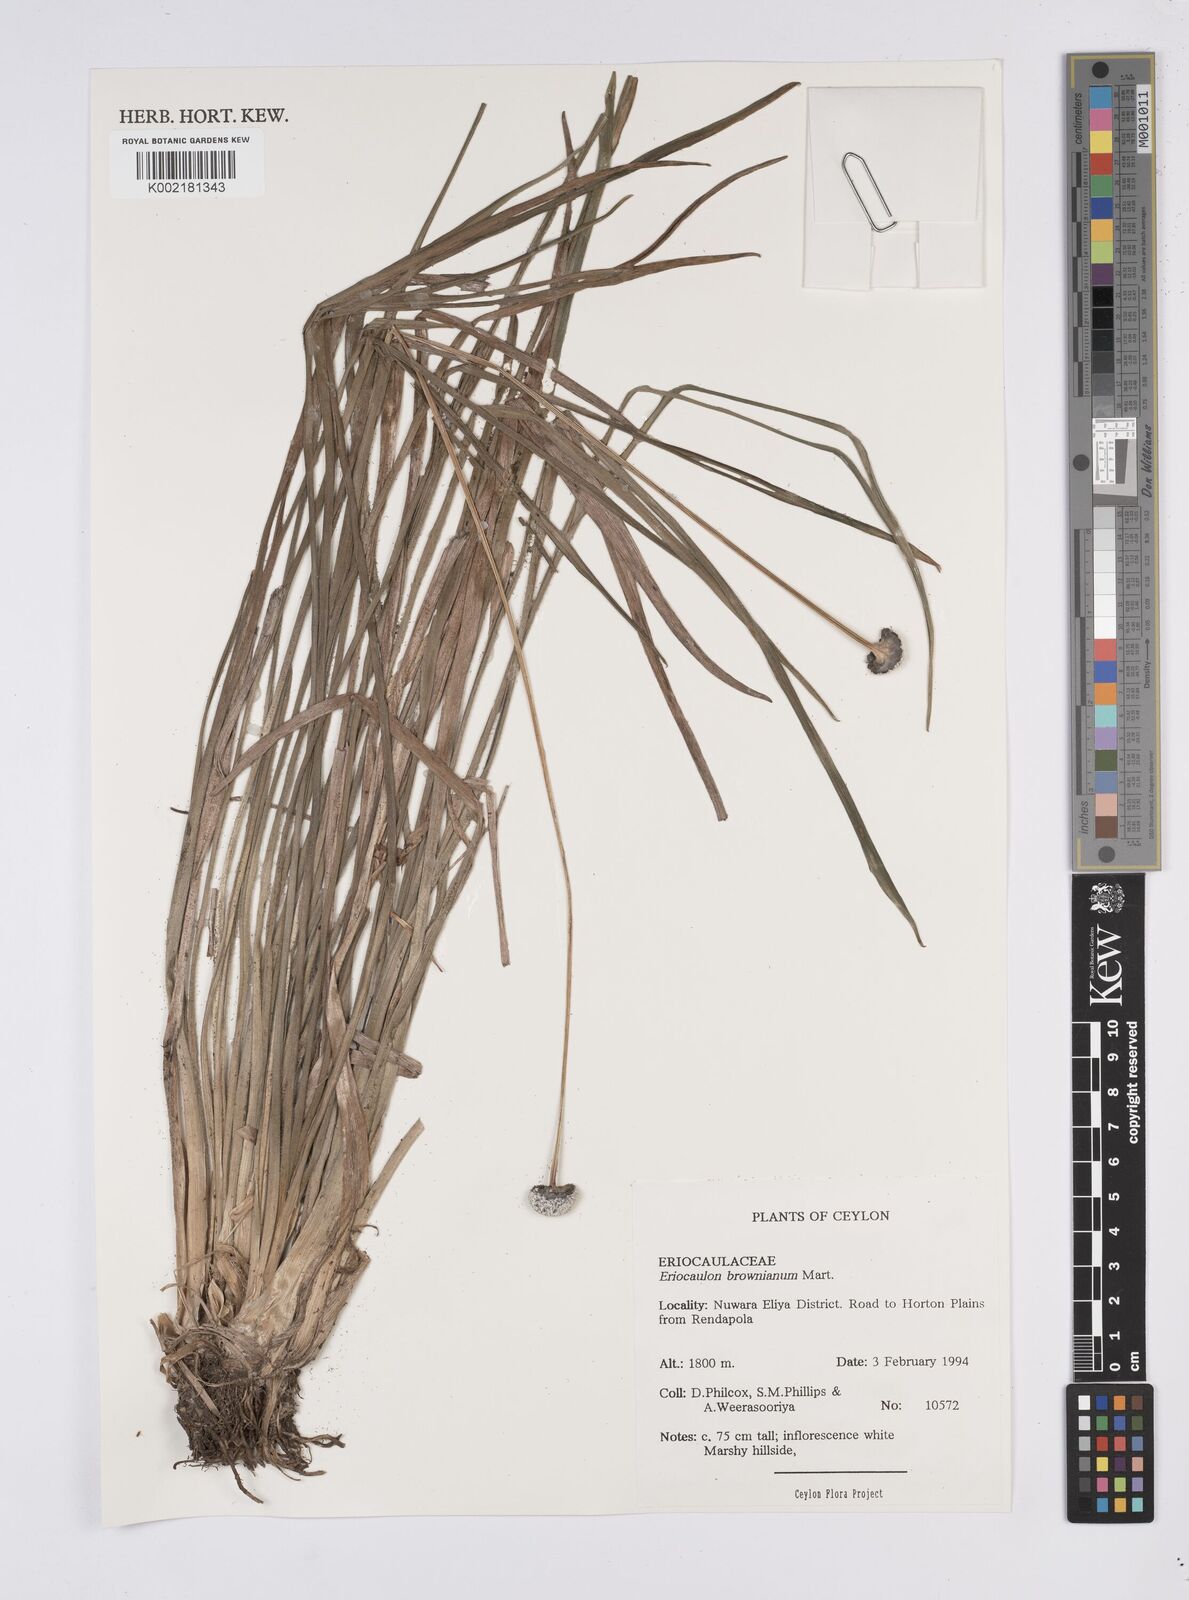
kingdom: Plantae
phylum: Tracheophyta
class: Liliopsida
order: Poales
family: Eriocaulaceae
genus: Eriocaulon
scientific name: Eriocaulon brownianum
